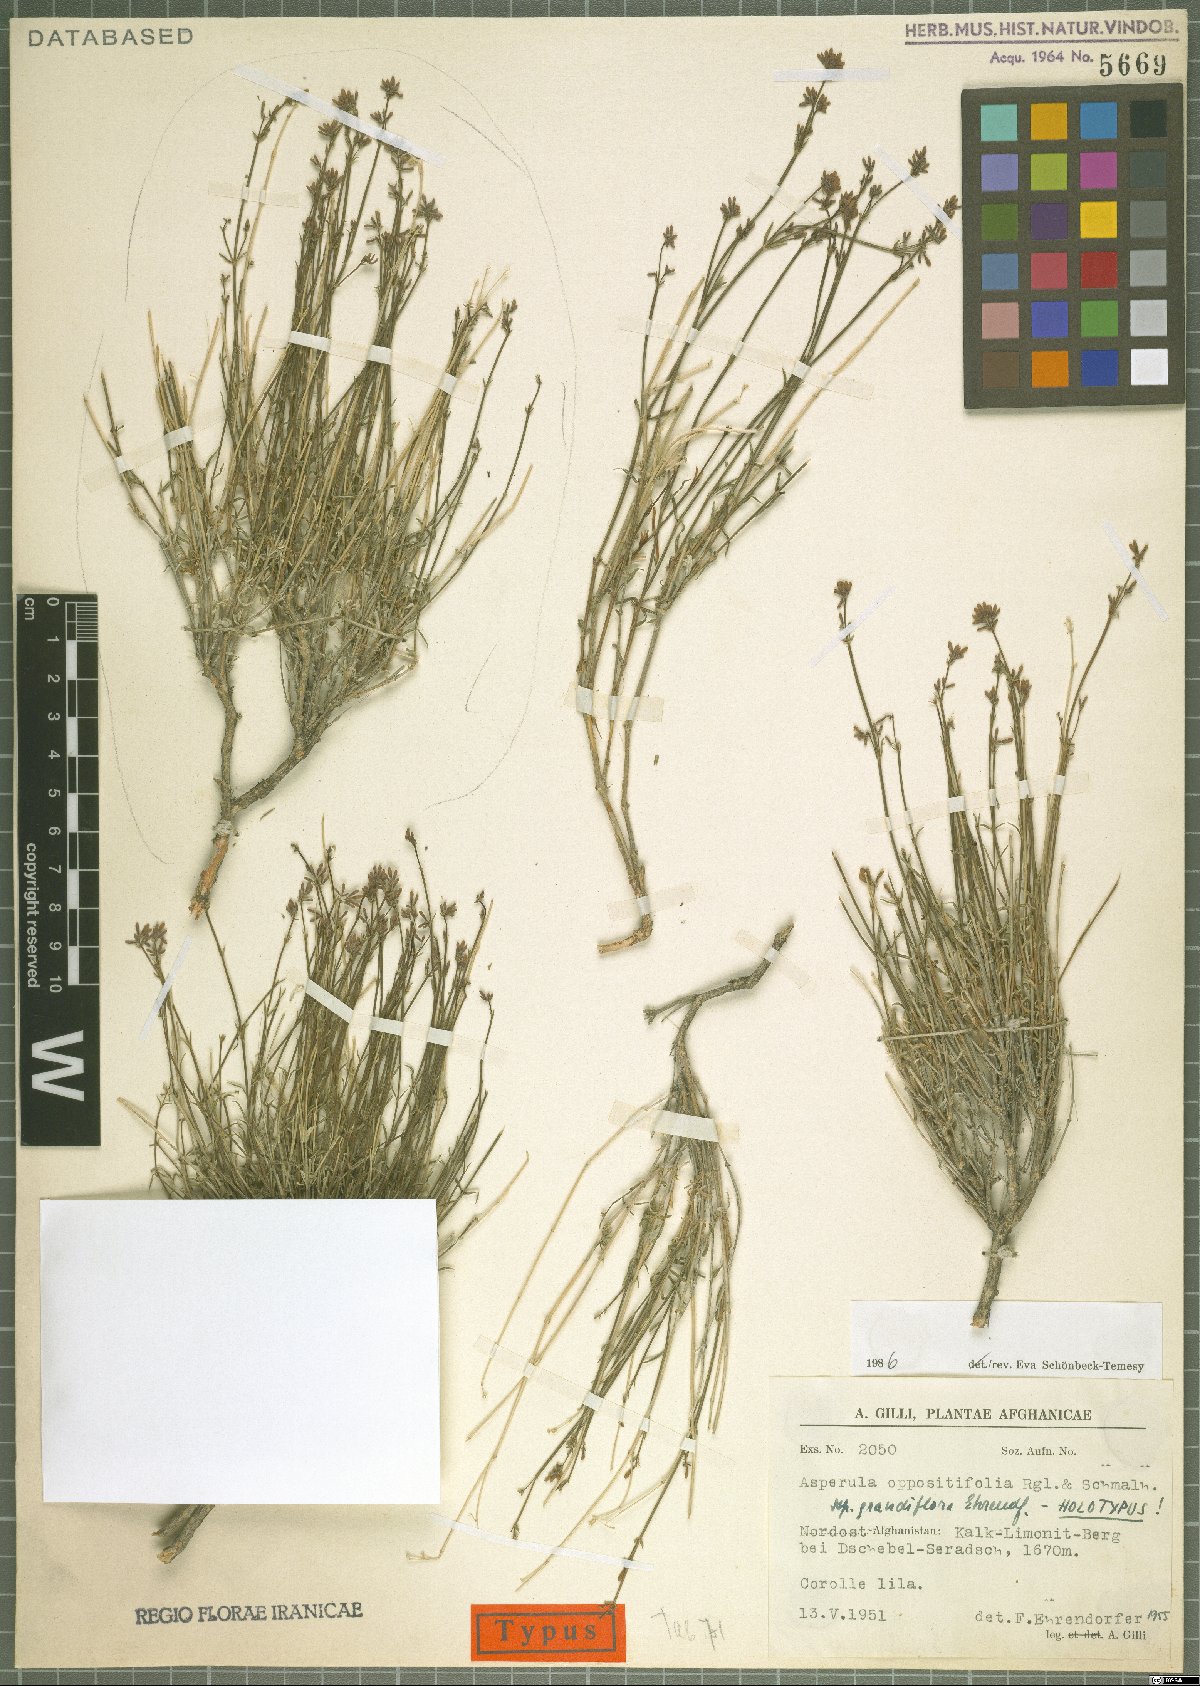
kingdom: Plantae
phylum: Tracheophyta
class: Magnoliopsida
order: Gentianales
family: Rubiaceae
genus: Asperula
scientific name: Asperula oppositifolia
